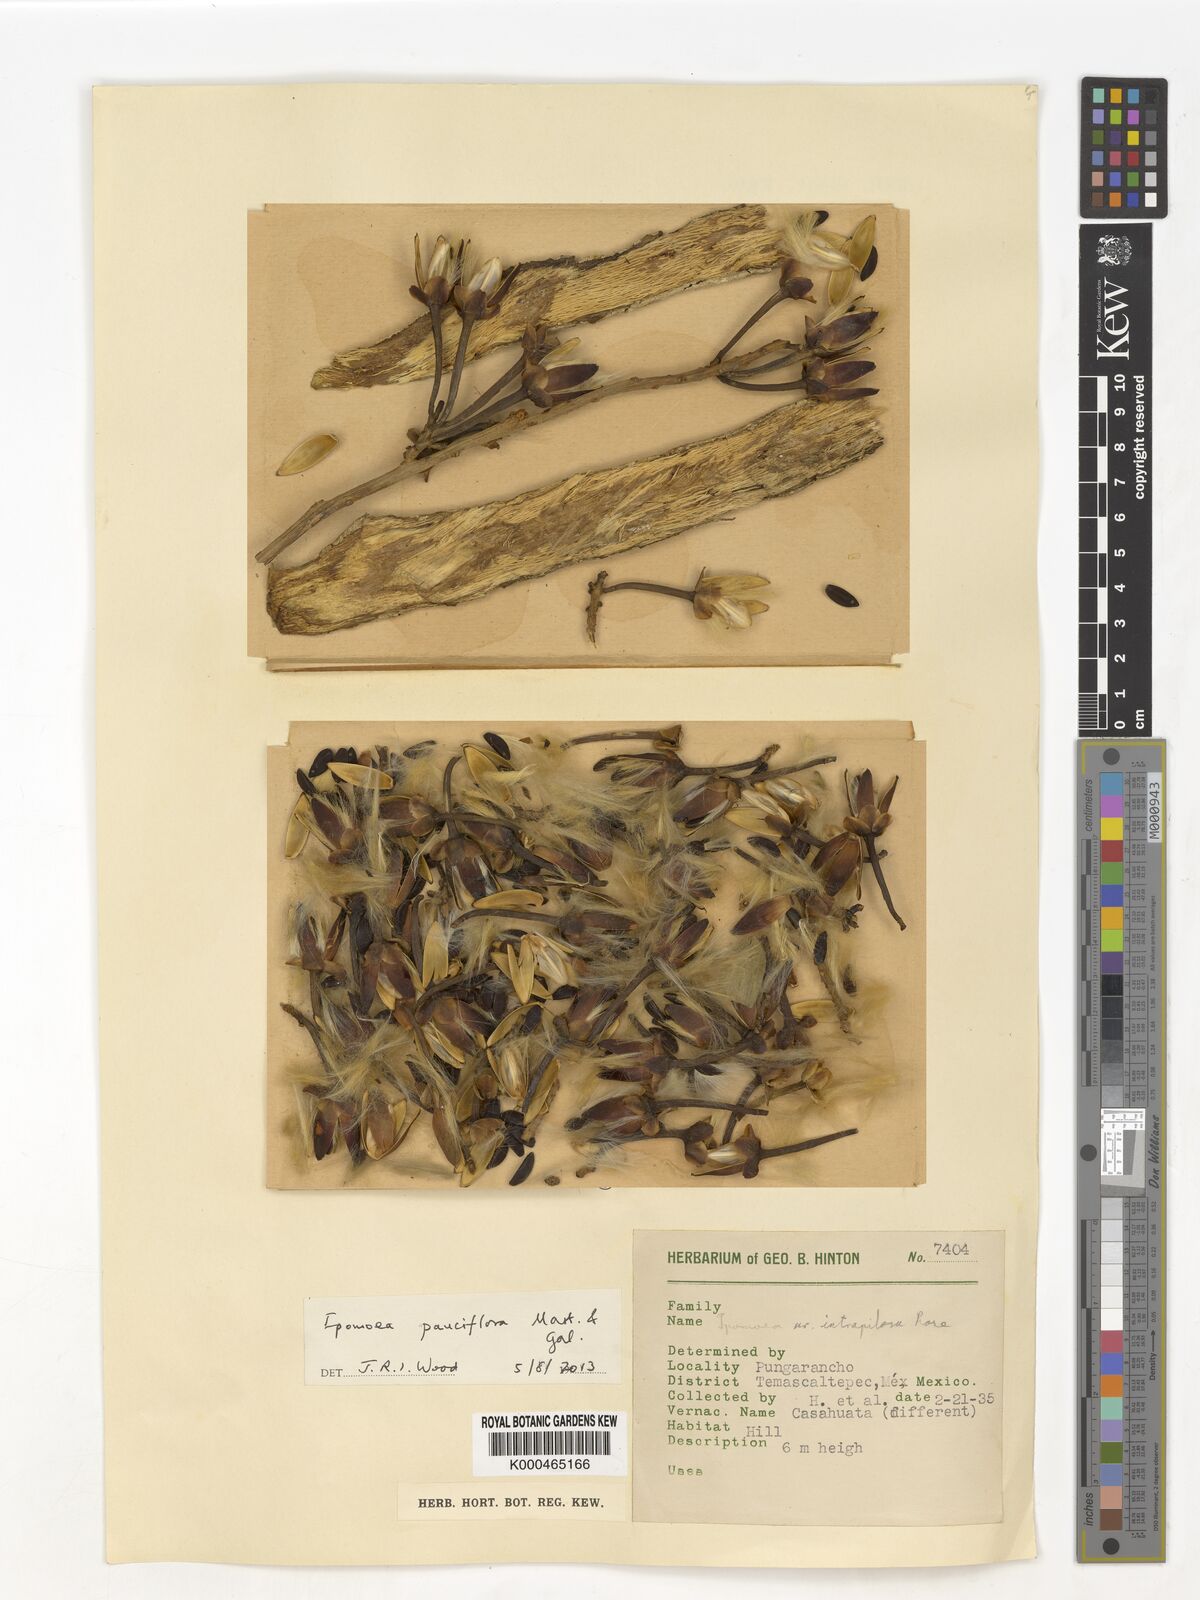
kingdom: Plantae
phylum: Tracheophyta
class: Magnoliopsida
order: Solanales
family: Convolvulaceae
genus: Ipomoea
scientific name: Ipomoea intrapilosa
